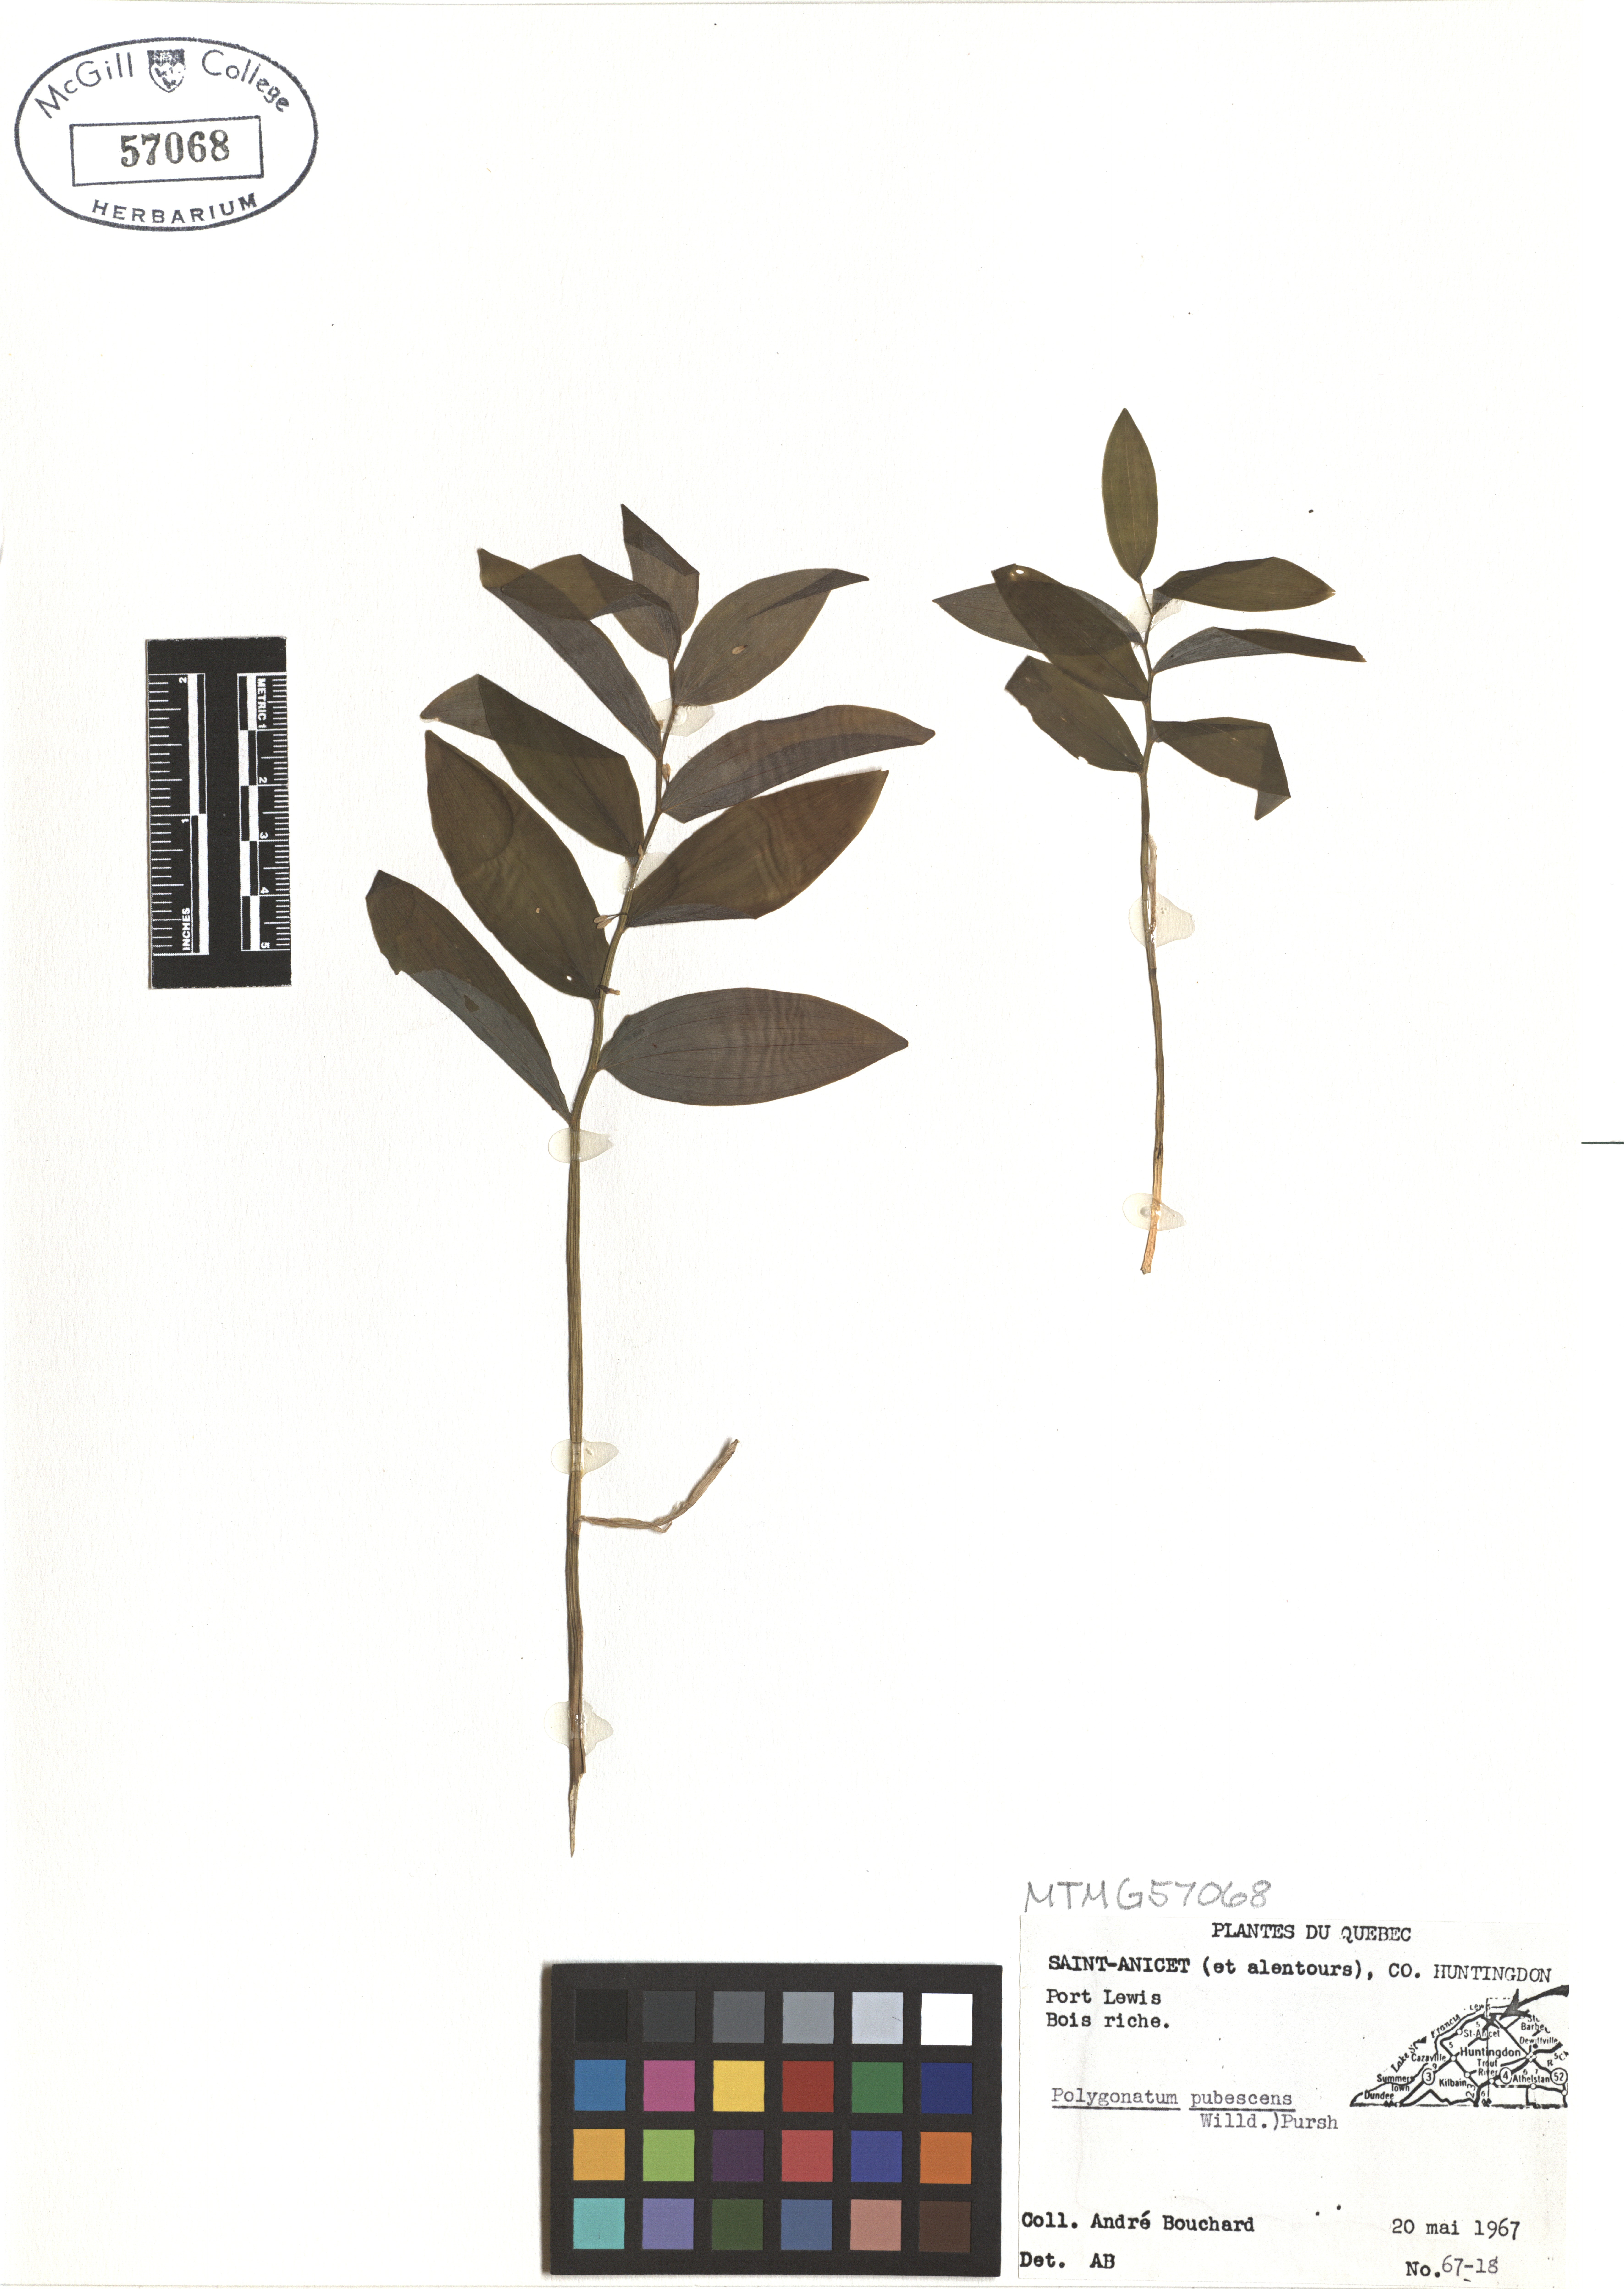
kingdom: Plantae
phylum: Tracheophyta
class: Liliopsida
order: Asparagales
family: Asparagaceae
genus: Polygonatum
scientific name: Polygonatum pubescens
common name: Downy solomon's seal
